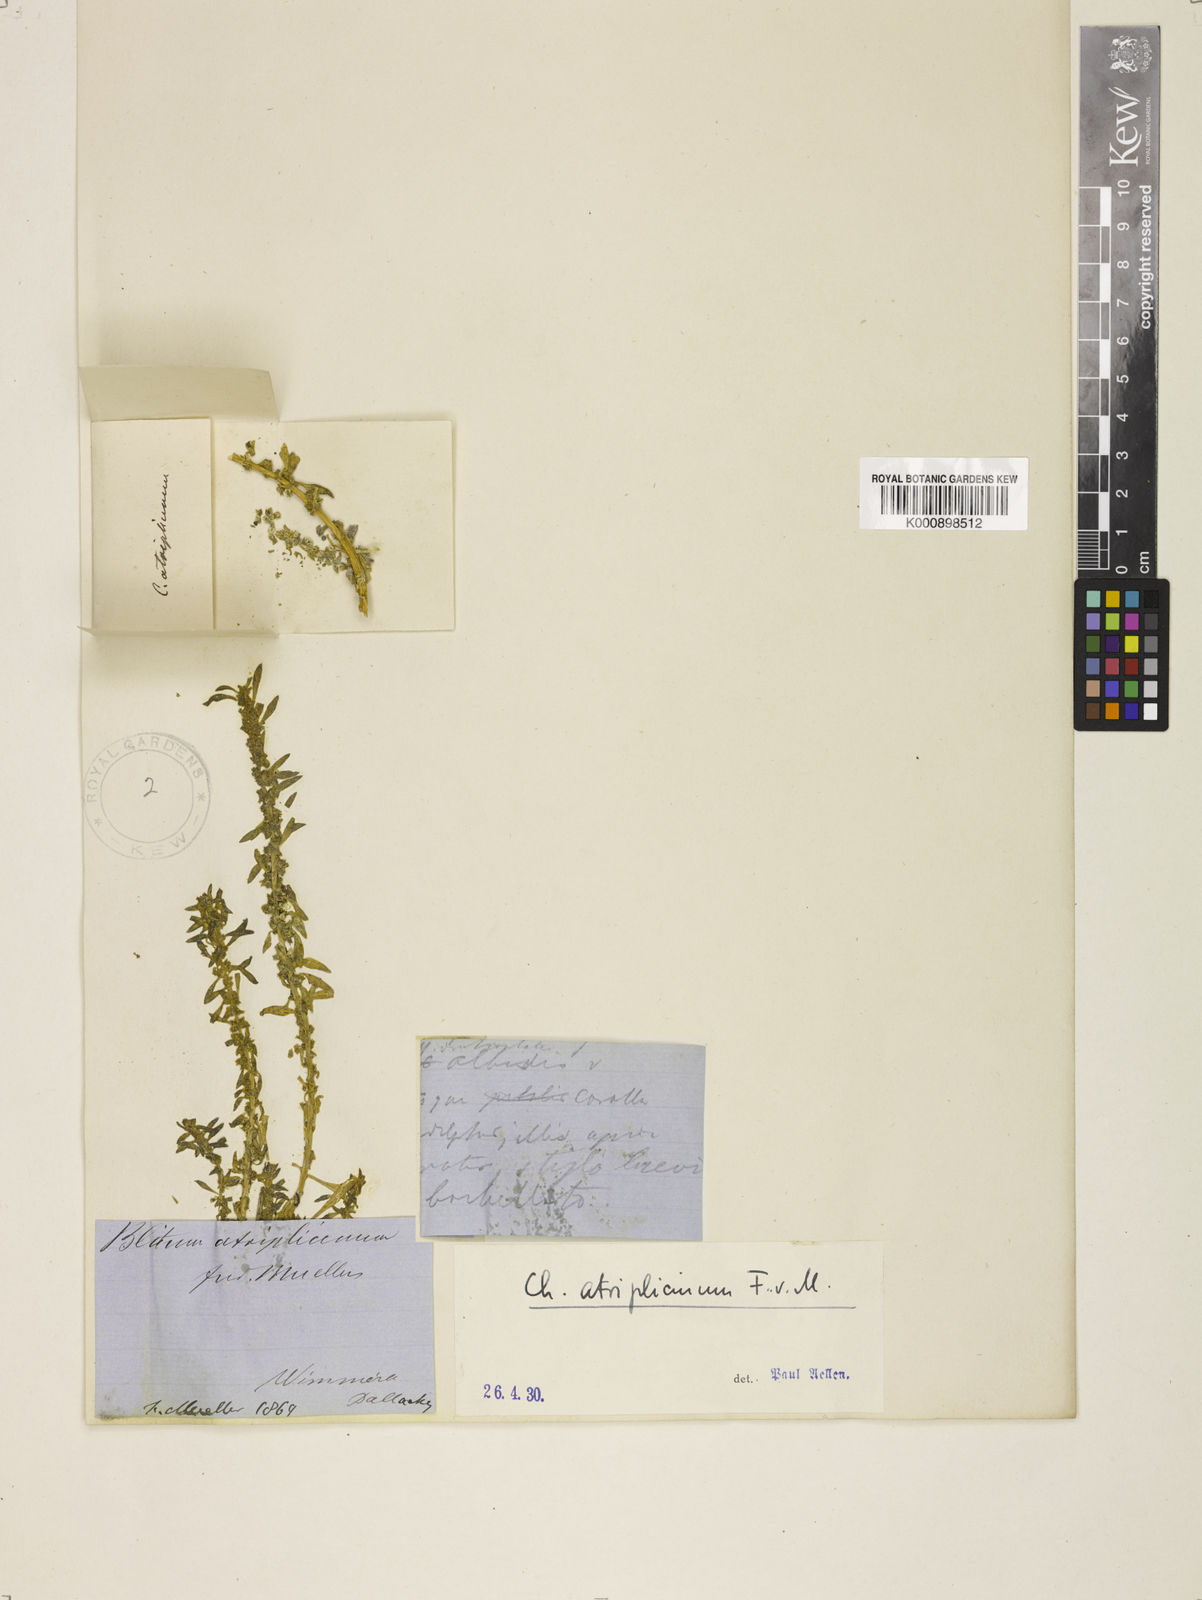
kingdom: Plantae
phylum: Tracheophyta
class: Magnoliopsida
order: Caryophyllales
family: Amaranthaceae
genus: Blitum
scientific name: Blitum atriplicinum
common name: Starry-goosefoot
